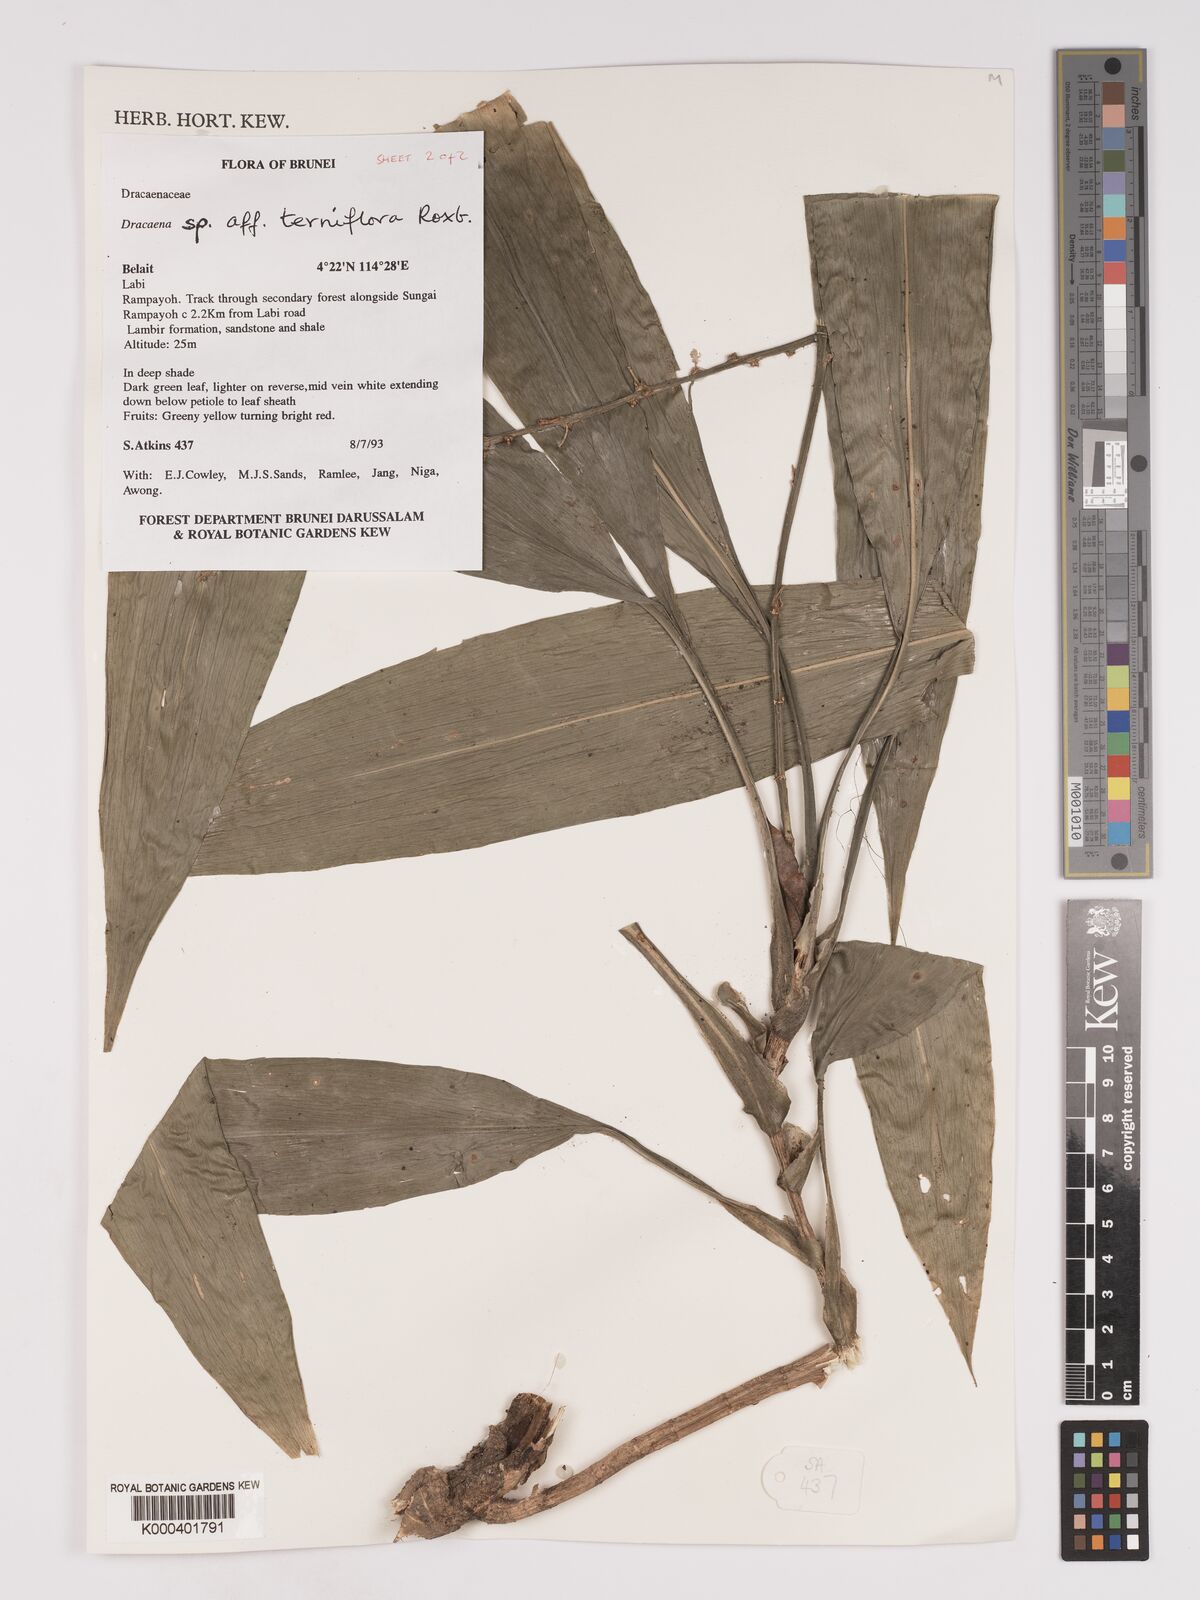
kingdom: Plantae
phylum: Tracheophyta
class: Liliopsida
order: Asparagales
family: Asparagaceae
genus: Dracaena
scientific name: Dracaena terniflora
